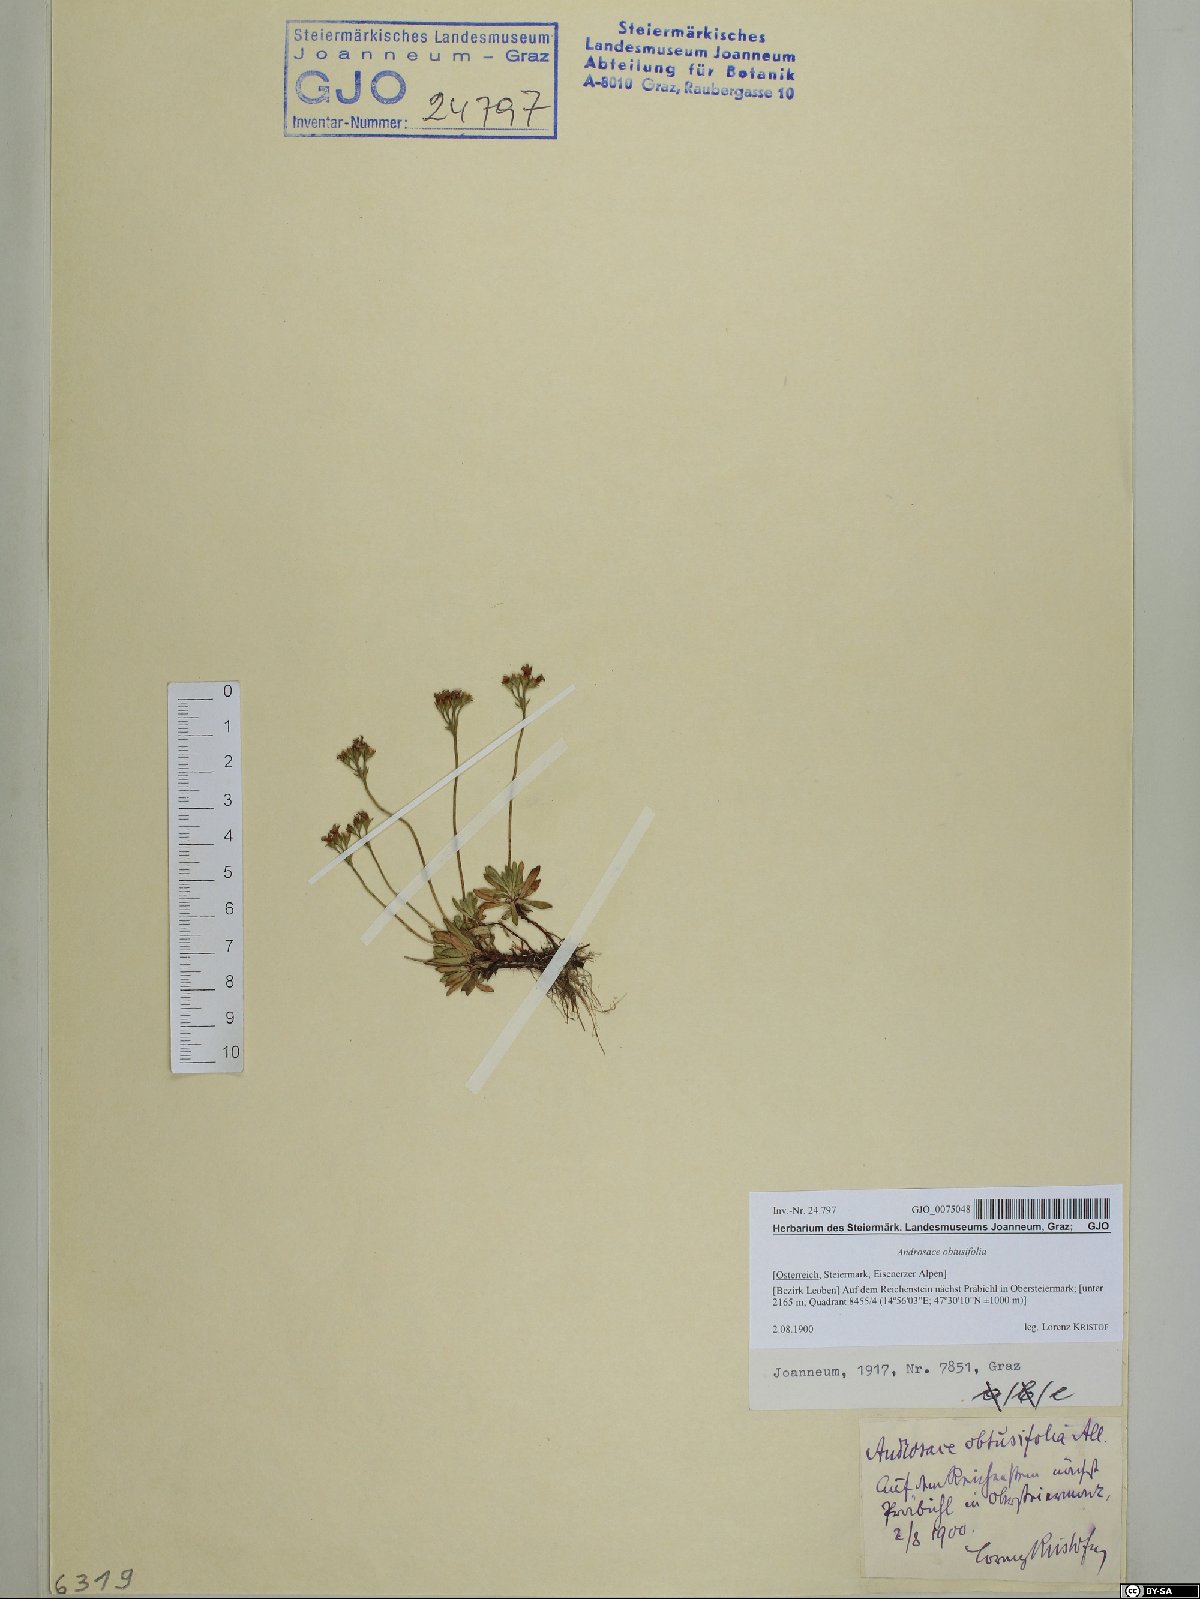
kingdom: Plantae
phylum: Tracheophyta
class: Magnoliopsida
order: Ericales
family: Primulaceae
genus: Androsace
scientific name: Androsace obtusifolia
